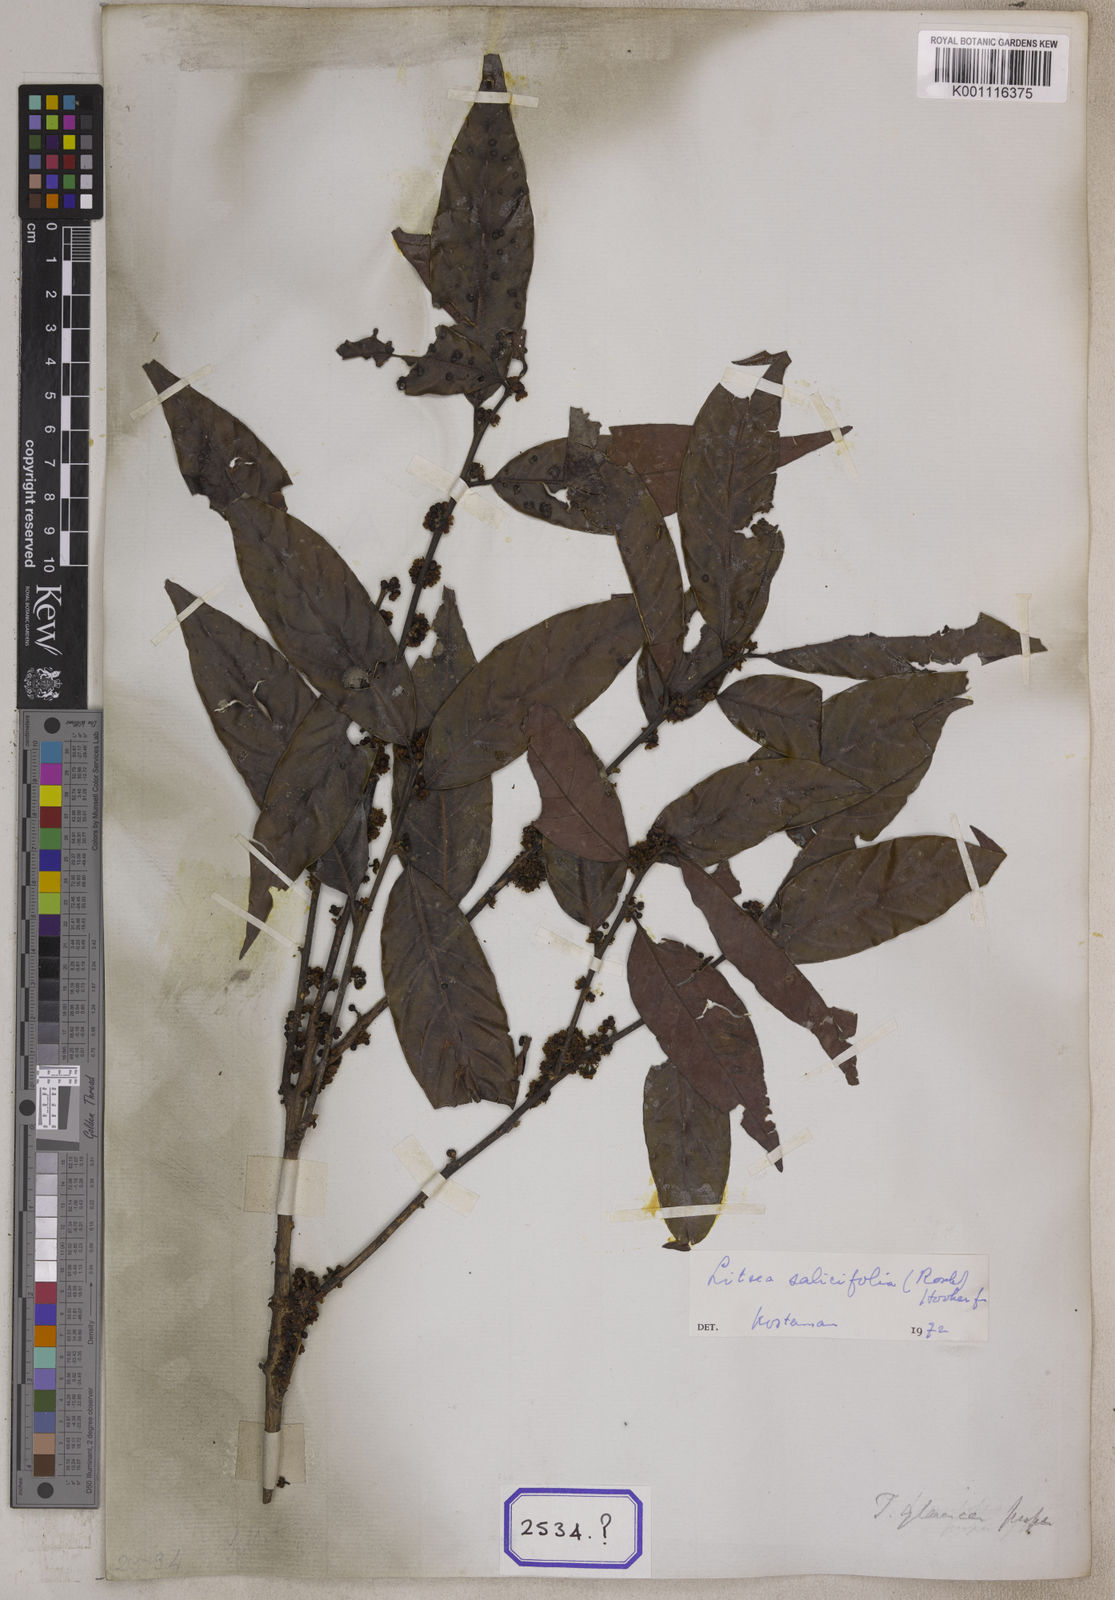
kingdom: Plantae
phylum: Tracheophyta
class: Magnoliopsida
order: Laurales
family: Lauraceae
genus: Litsea
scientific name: Litsea
